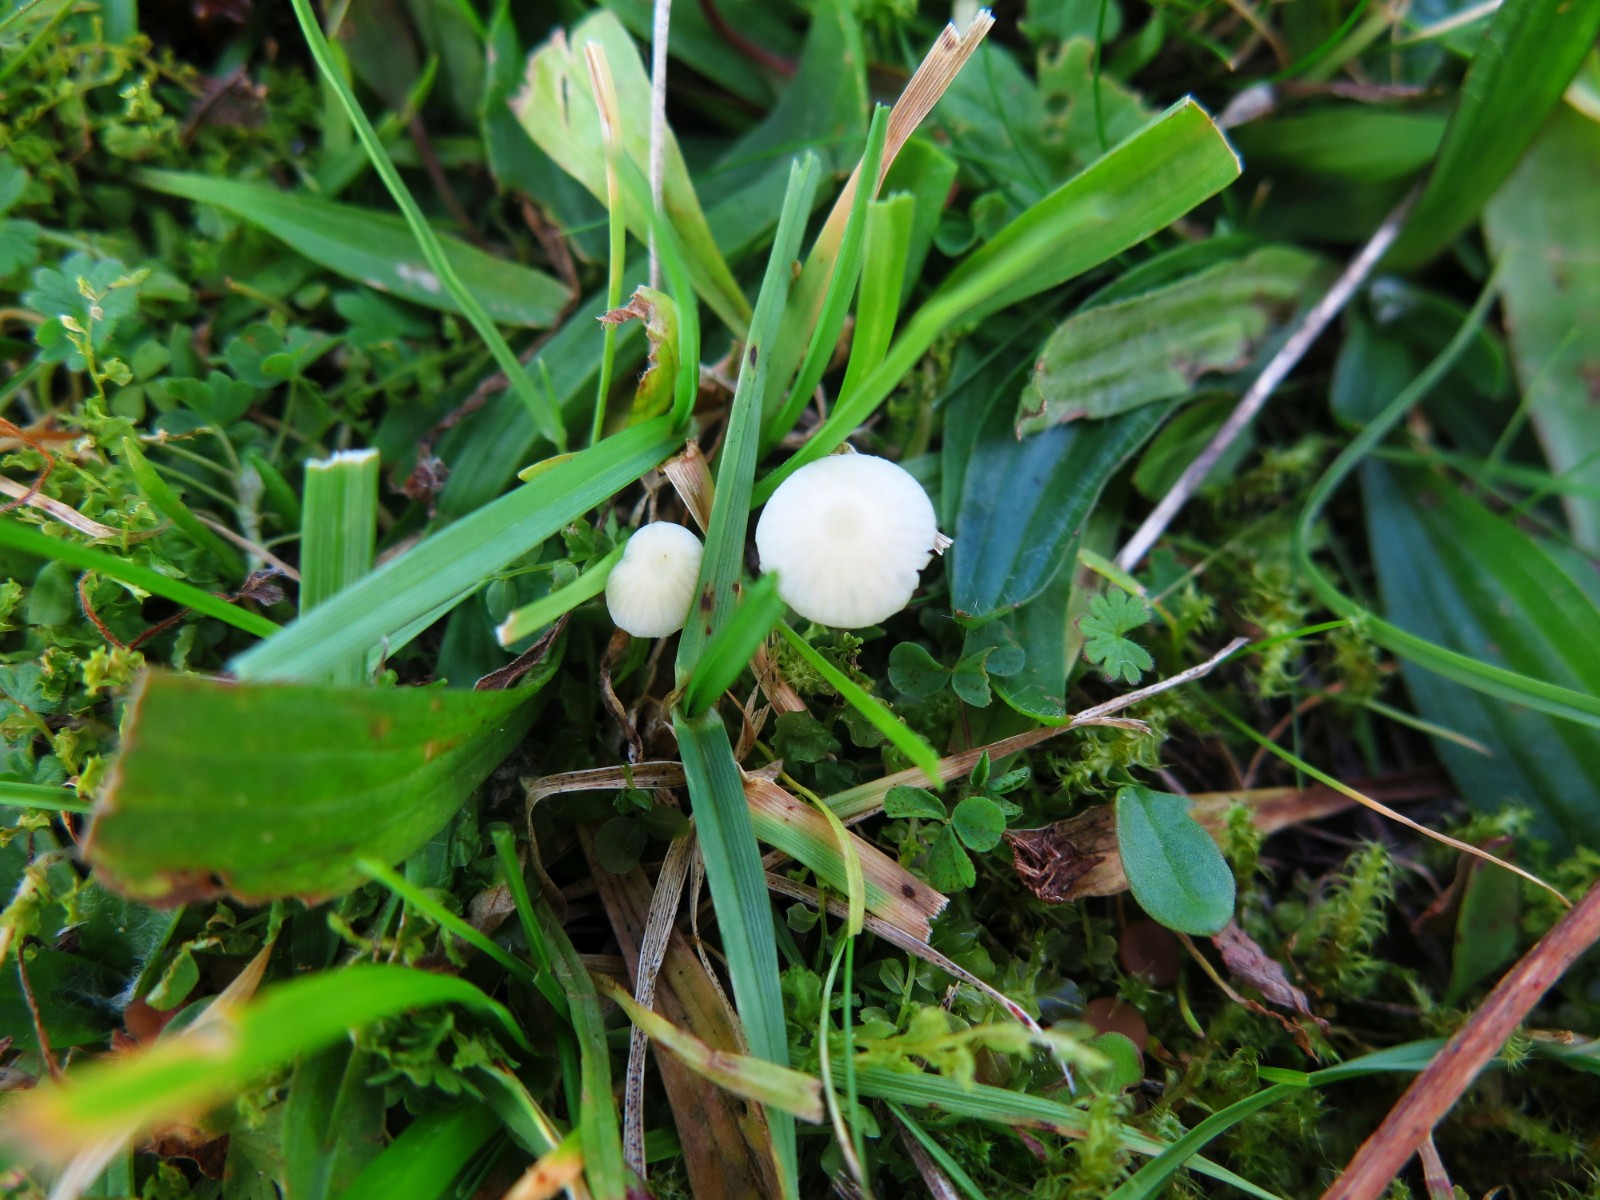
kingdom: Fungi
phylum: Basidiomycota
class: Agaricomycetes
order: Agaricales
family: Mycenaceae
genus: Atheniella
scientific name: Atheniella flavoalba
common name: gulhvid huesvamp
